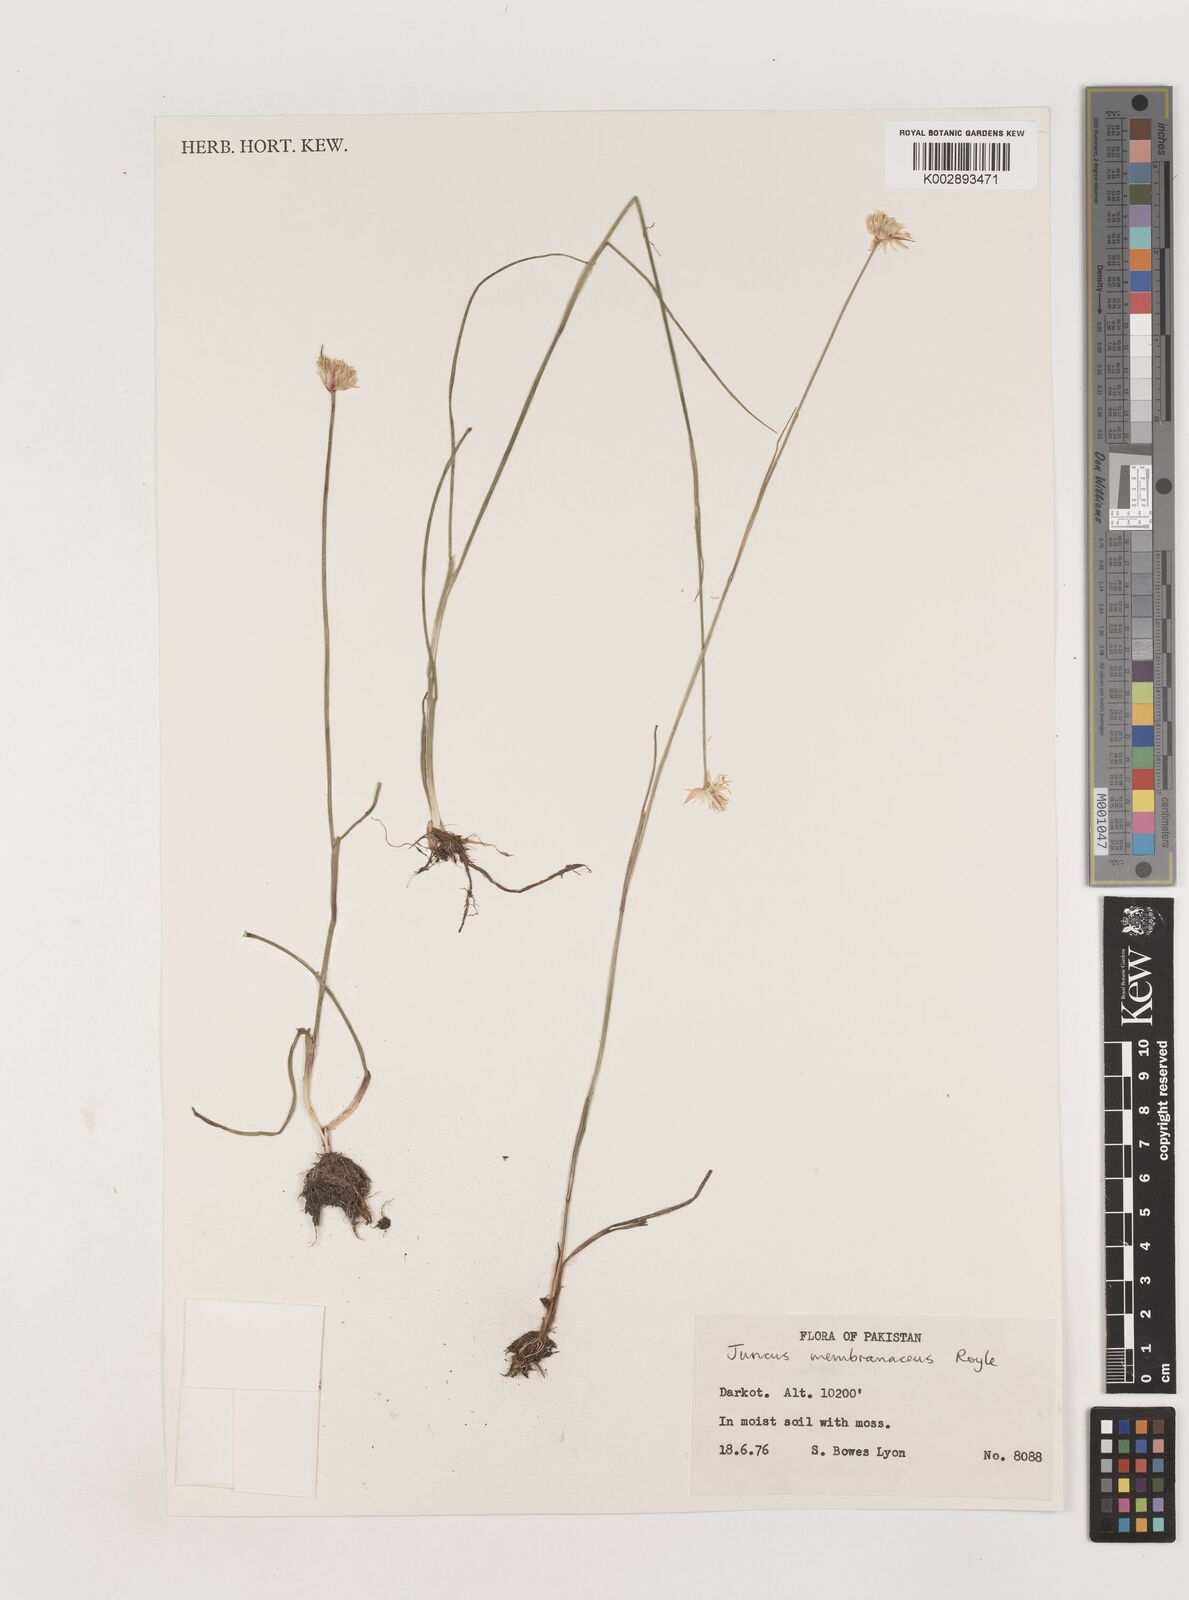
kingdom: Plantae
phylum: Tracheophyta
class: Liliopsida
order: Poales
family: Juncaceae
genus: Juncus
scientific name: Juncus membranaceus
